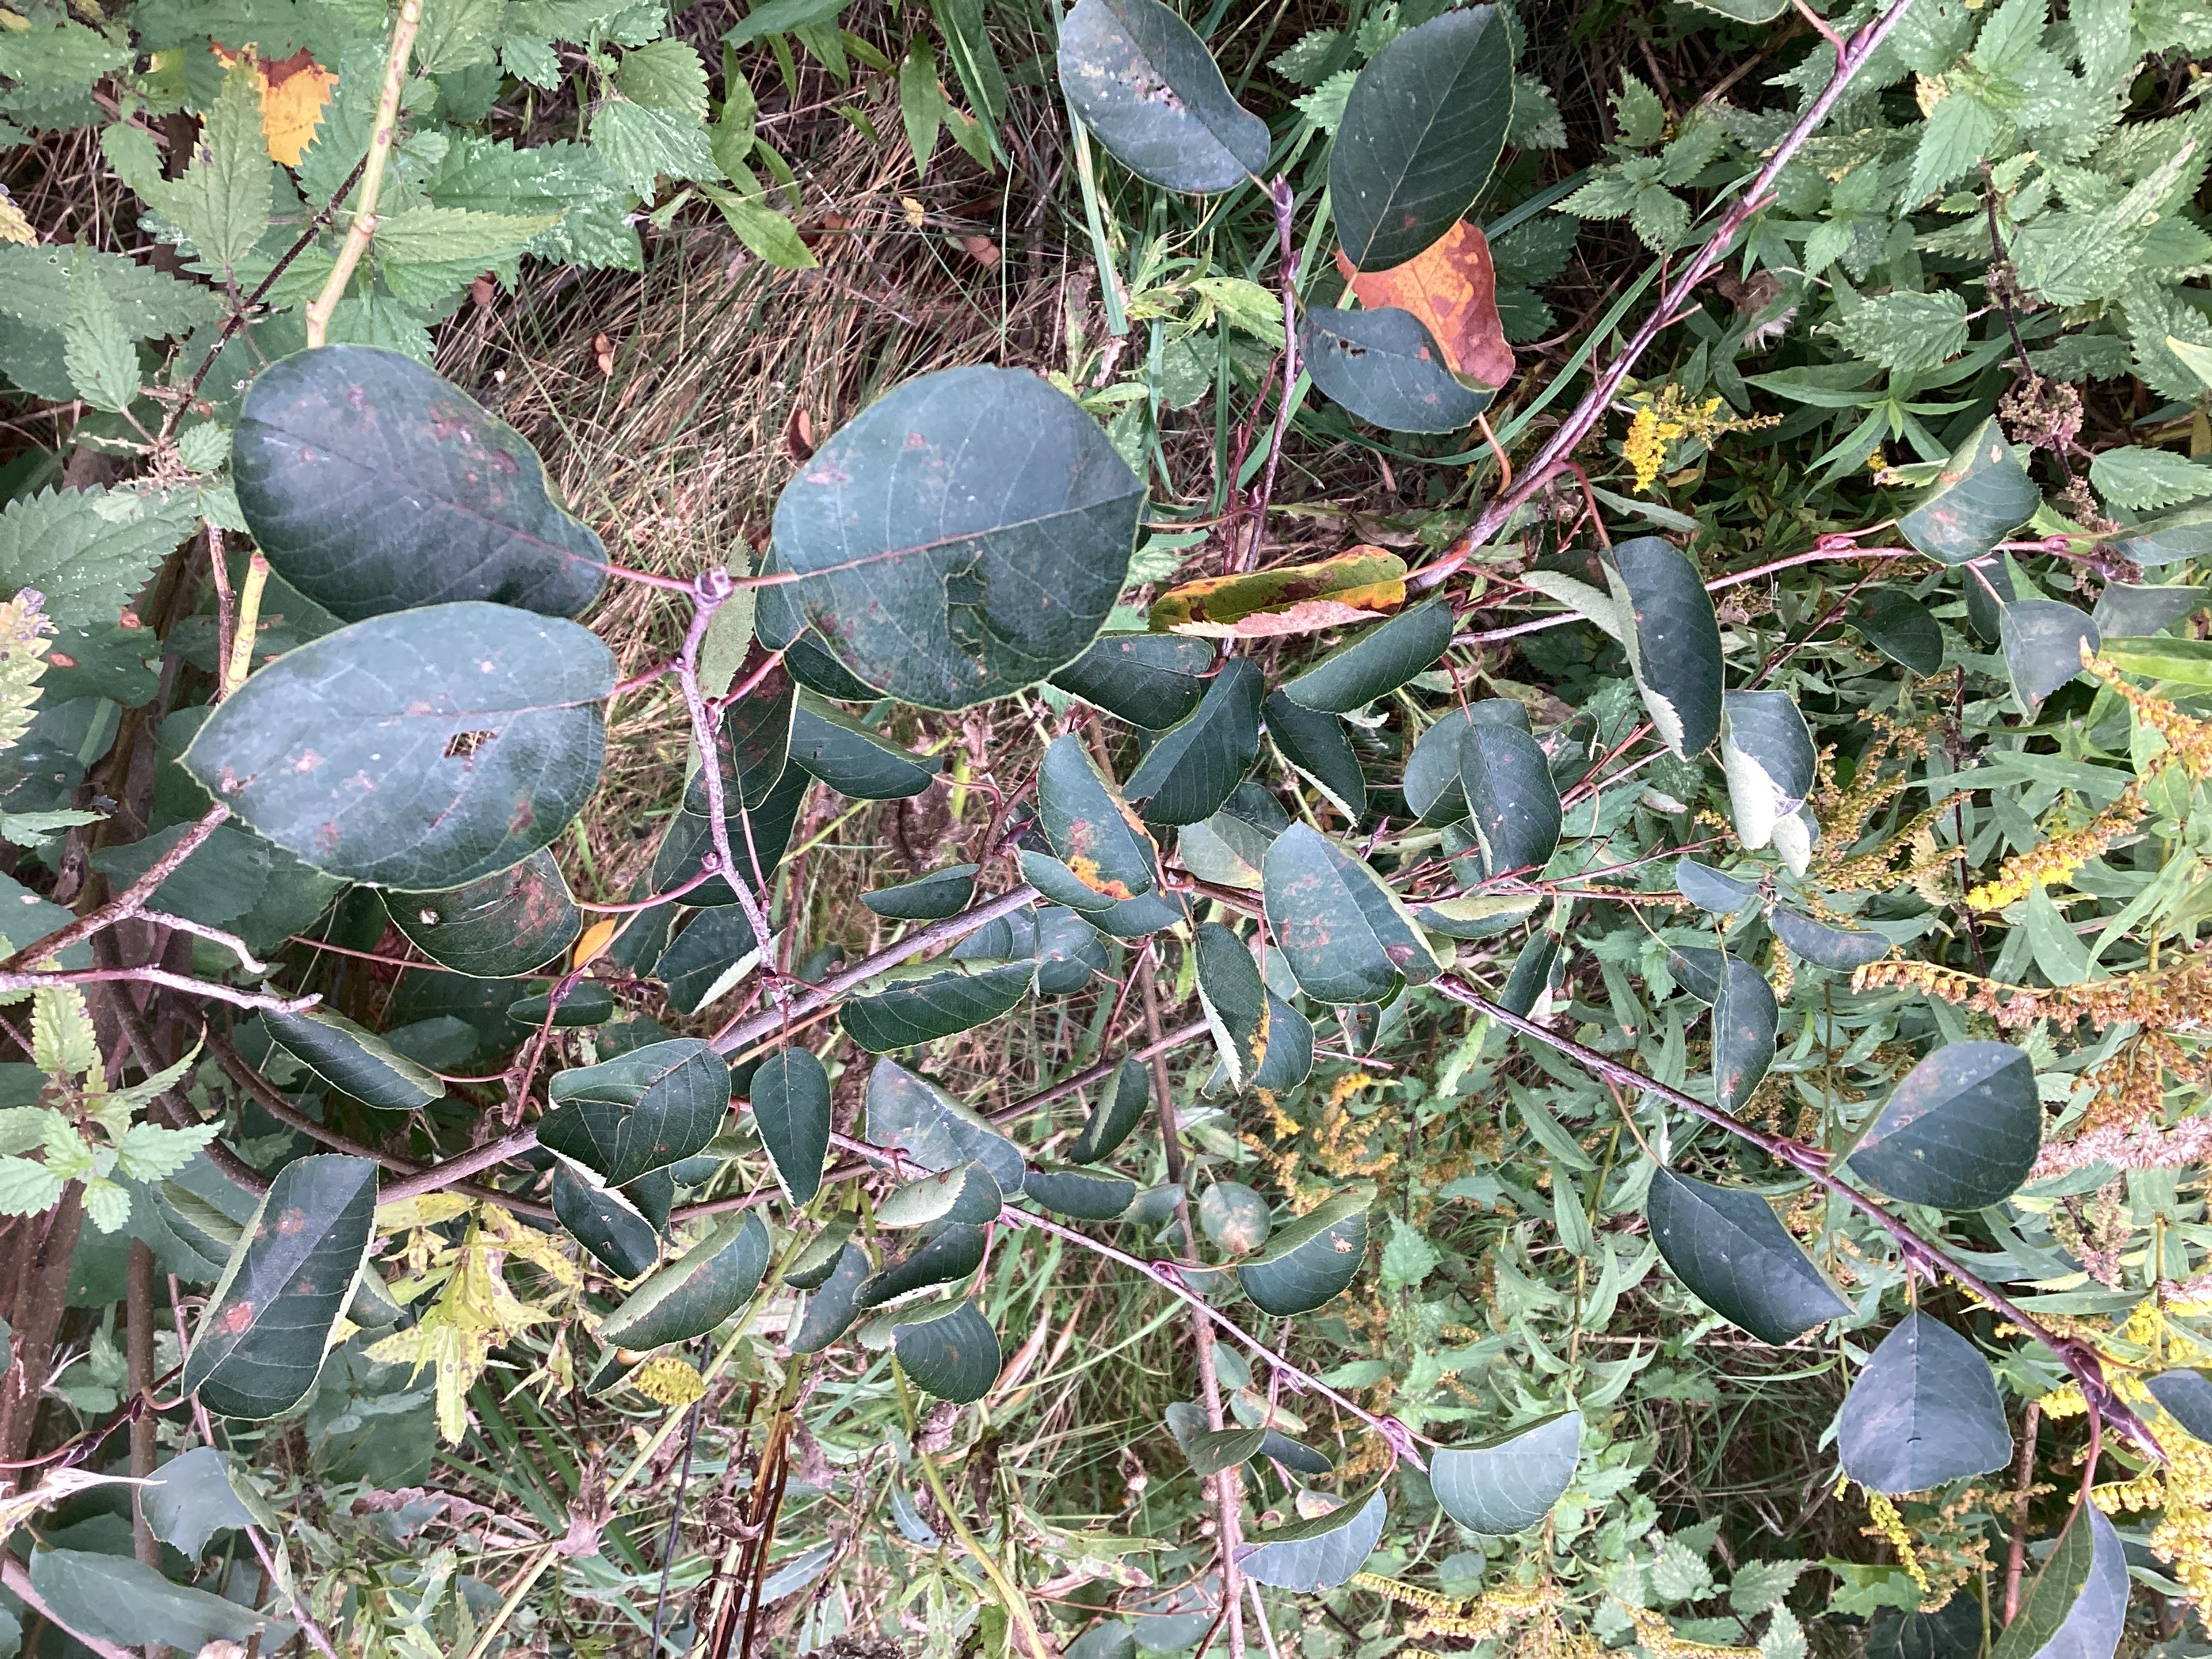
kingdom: Plantae
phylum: Tracheophyta
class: Magnoliopsida
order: Rosales
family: Rosaceae
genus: Amelanchier
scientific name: Amelanchier lamarckii
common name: kanadablåhegg
